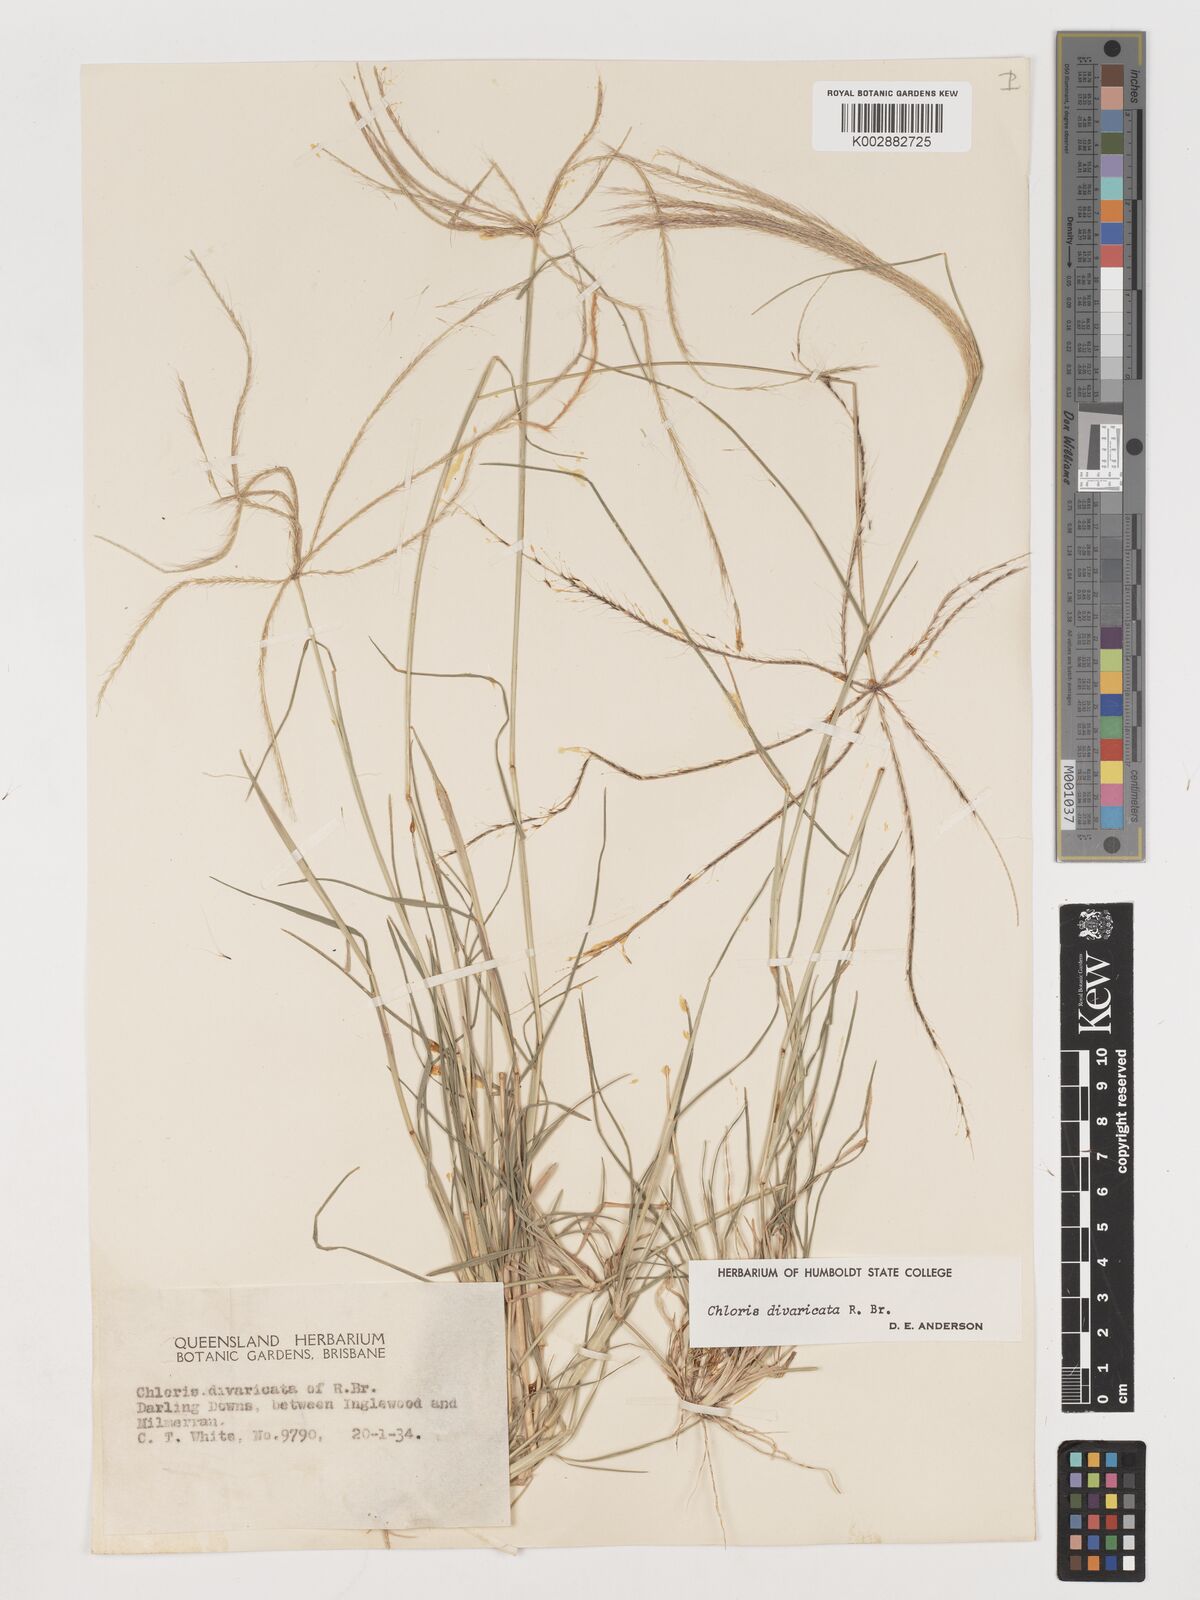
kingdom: Plantae
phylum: Tracheophyta
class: Liliopsida
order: Poales
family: Poaceae
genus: Chloris
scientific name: Chloris divaricata
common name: Spreading windmill grass
